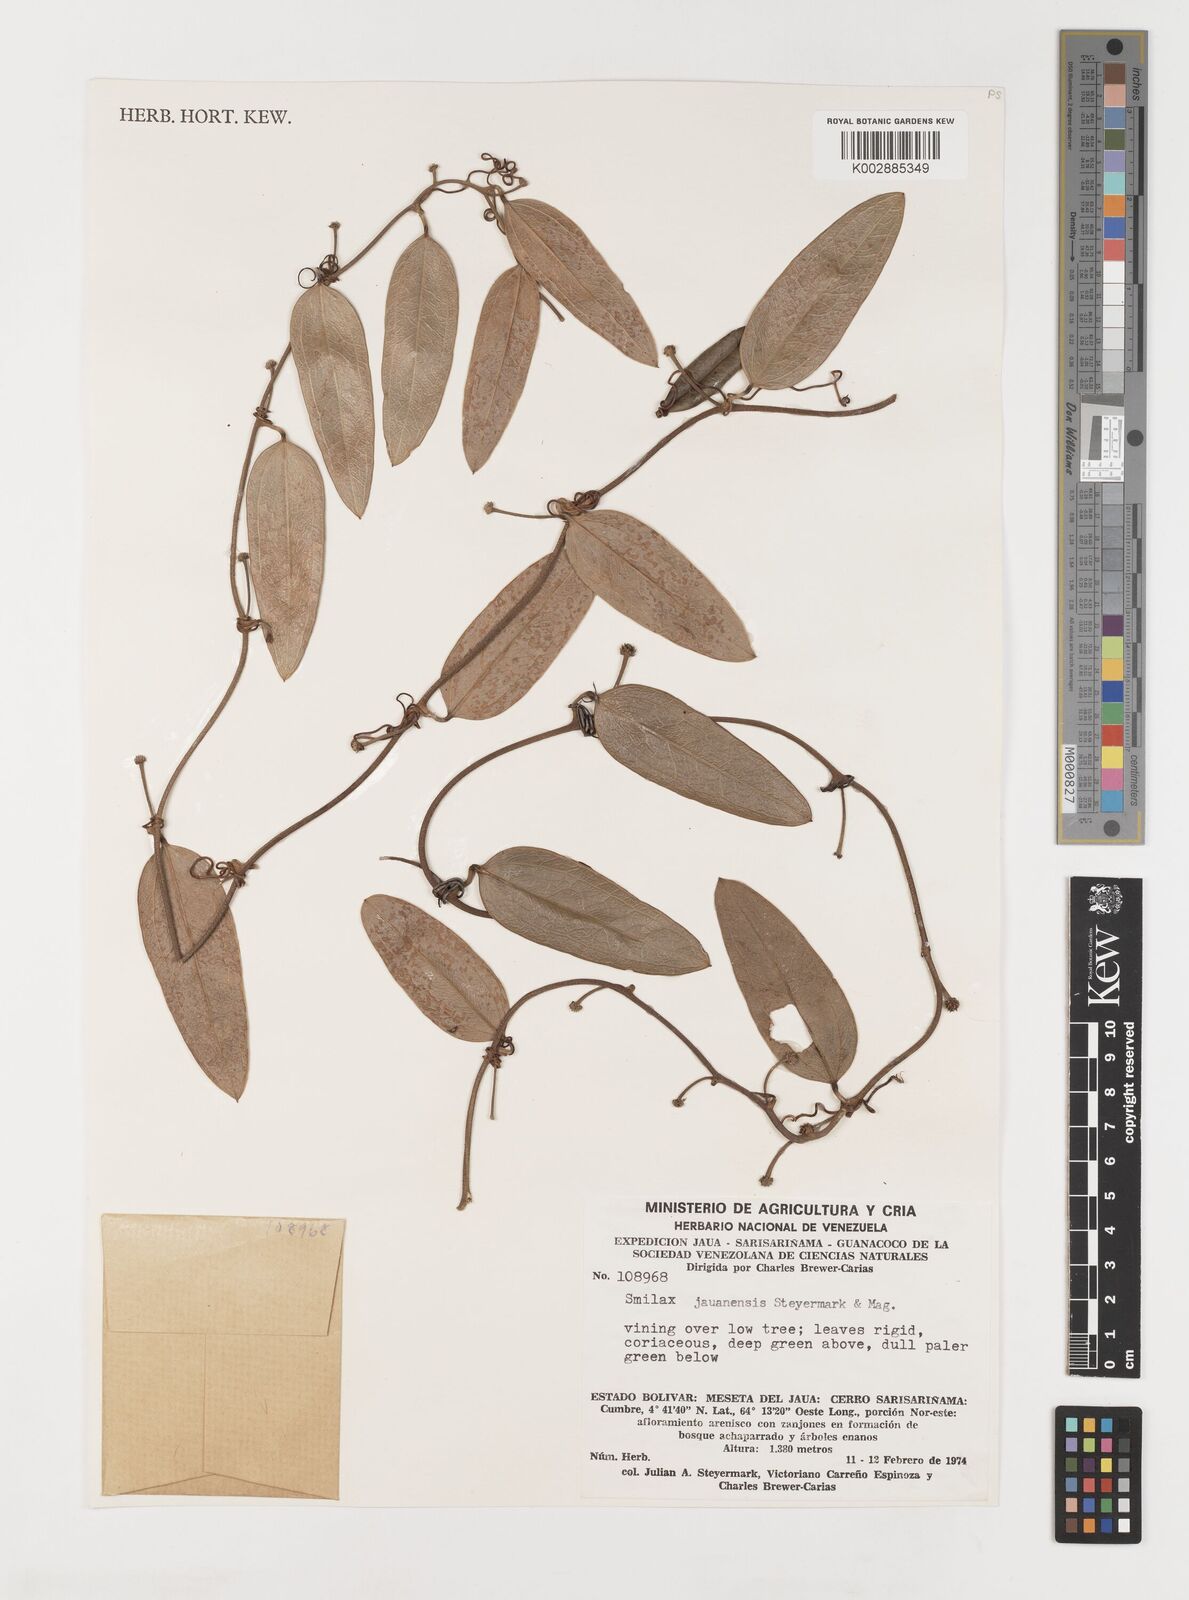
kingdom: Plantae
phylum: Tracheophyta
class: Liliopsida
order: Liliales
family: Smilacaceae
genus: Smilax
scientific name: Smilax domingensis
